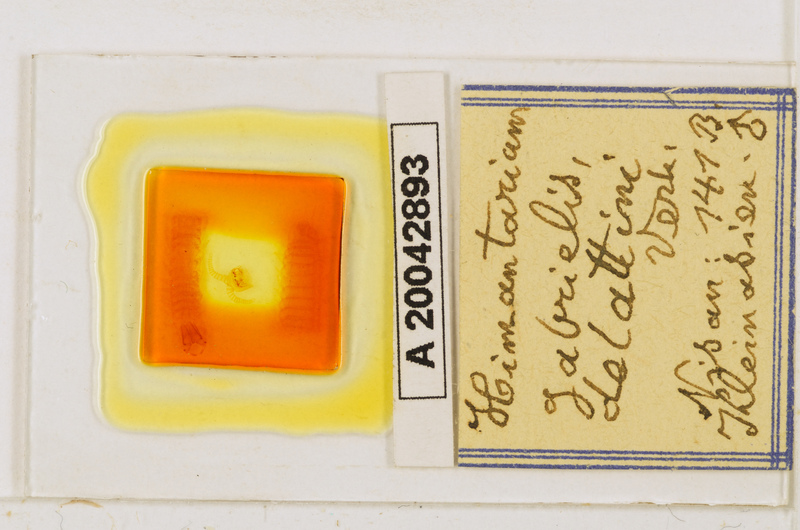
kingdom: Animalia
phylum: Arthropoda
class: Chilopoda
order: Geophilomorpha
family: Himantariidae
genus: Himantarium
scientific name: Himantarium gabrielis
